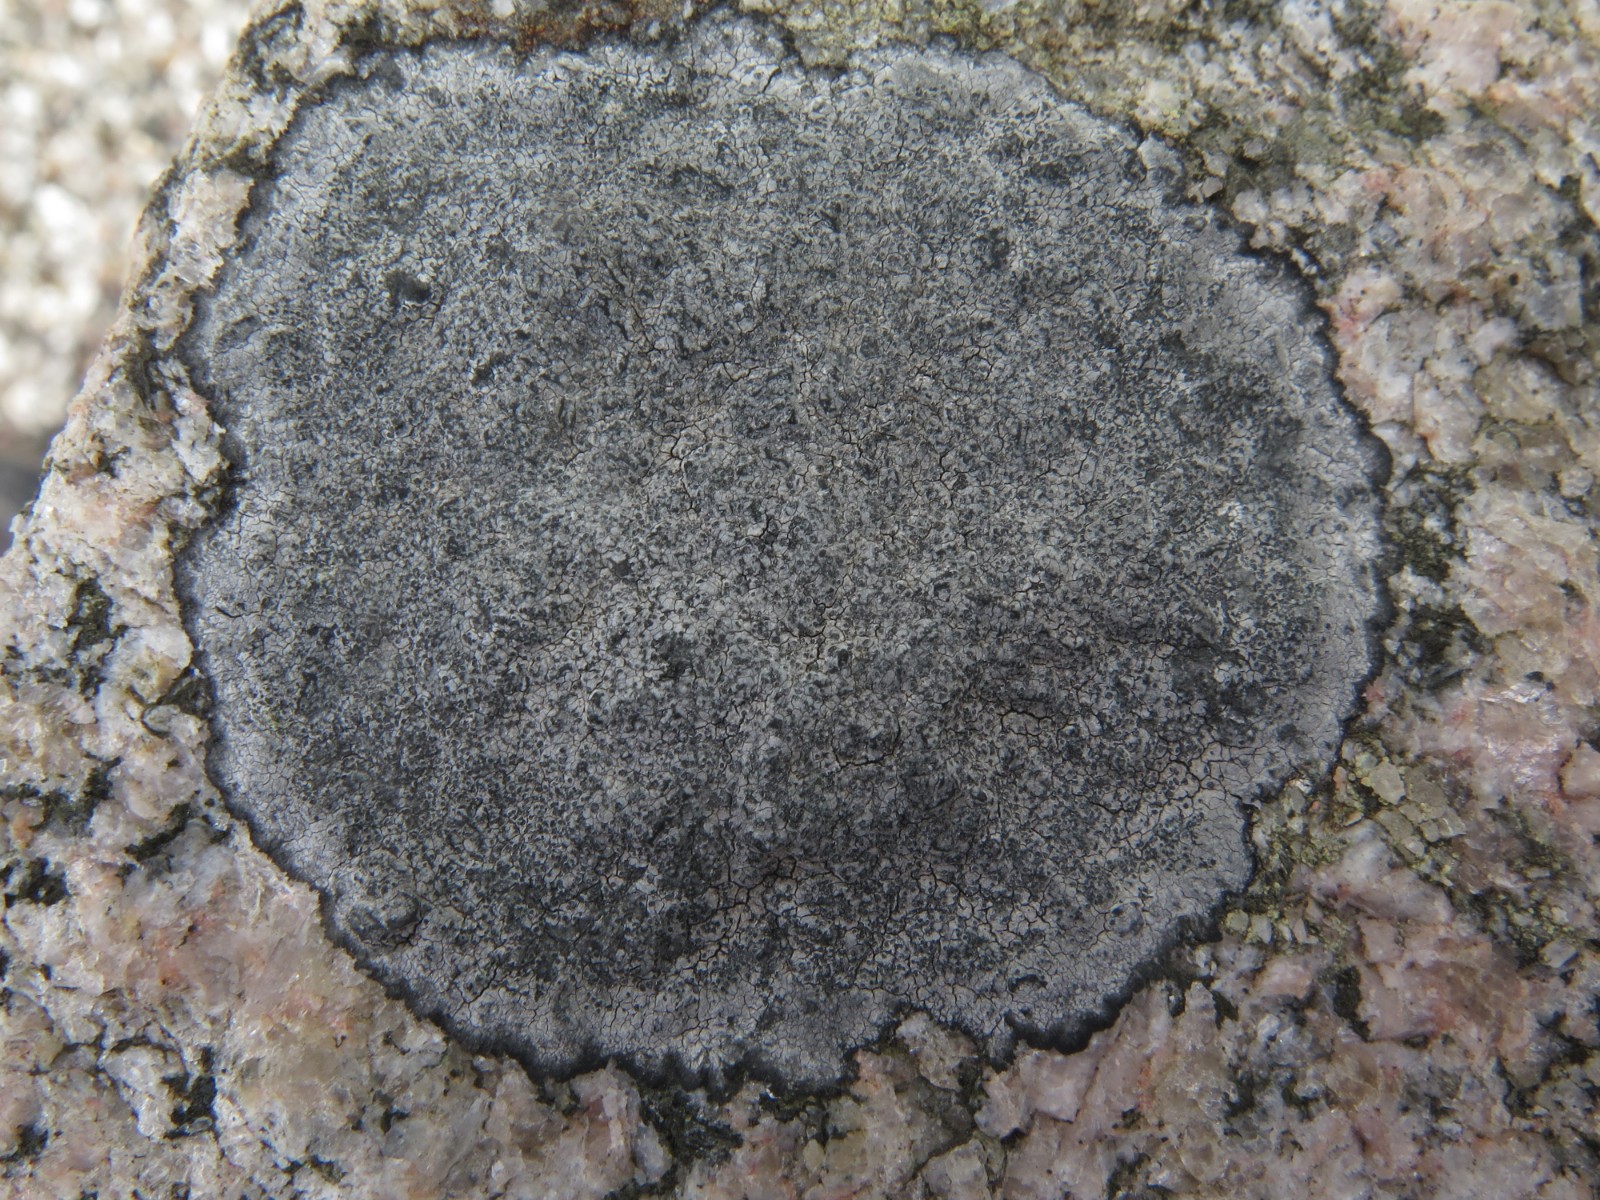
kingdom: Fungi
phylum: Ascomycota
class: Lecanoromycetes
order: Lecideales
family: Lecideaceae
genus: Porpidia
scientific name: Porpidia tuberculosa
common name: broget bredskivelav
